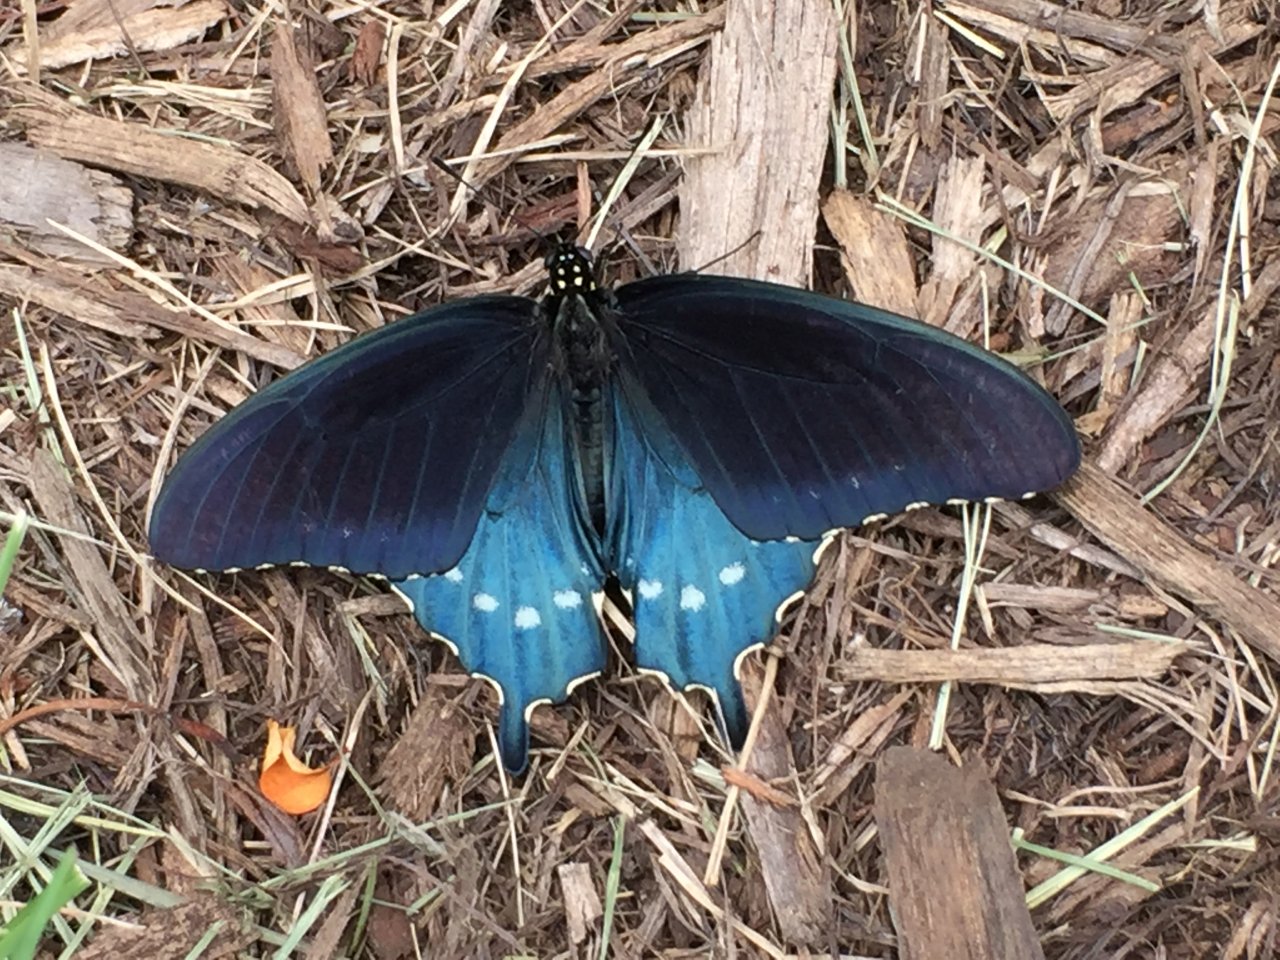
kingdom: Animalia
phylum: Arthropoda
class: Insecta
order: Lepidoptera
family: Papilionidae
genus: Battus
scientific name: Battus philenor
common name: Pipevine Swallowtail
